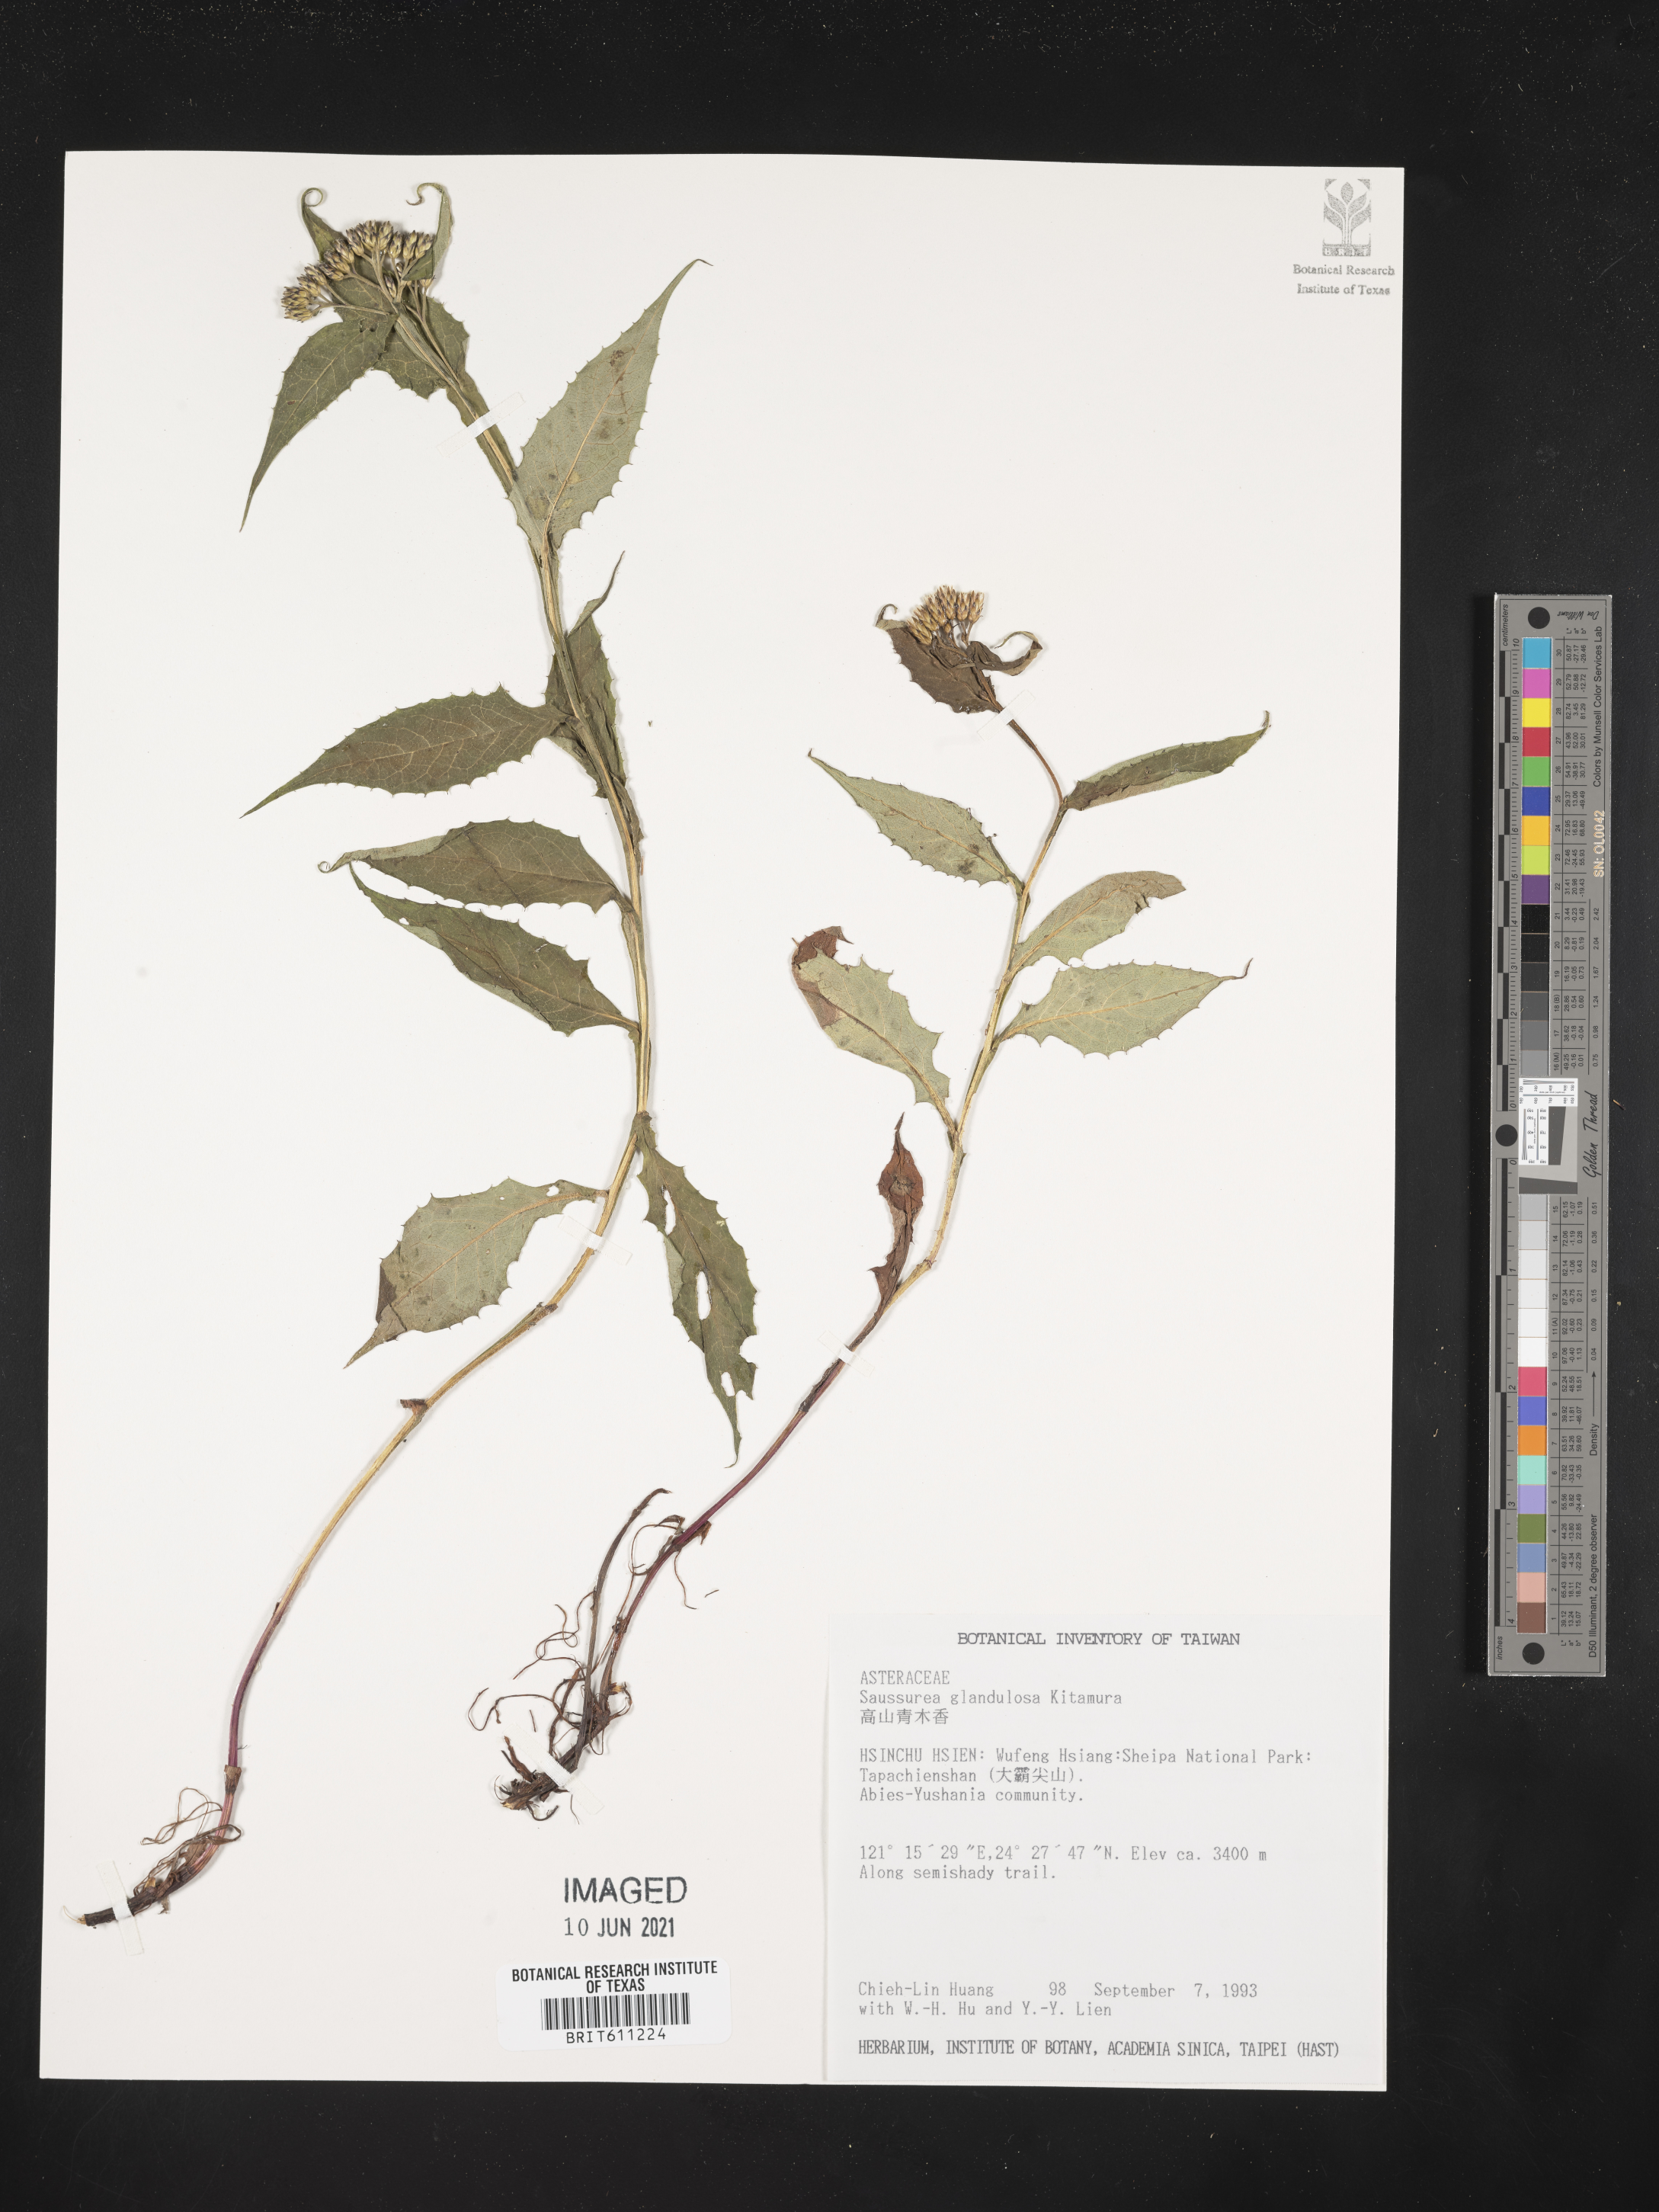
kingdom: Plantae
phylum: Tracheophyta
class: Magnoliopsida
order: Asterales
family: Asteraceae
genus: Saussurea
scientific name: Saussurea glandulosa
